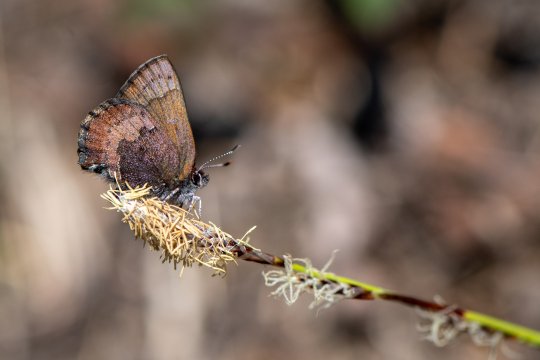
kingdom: Animalia
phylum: Arthropoda
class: Insecta
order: Lepidoptera
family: Lycaenidae
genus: Incisalia
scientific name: Incisalia irioides
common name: Brown Elfin
